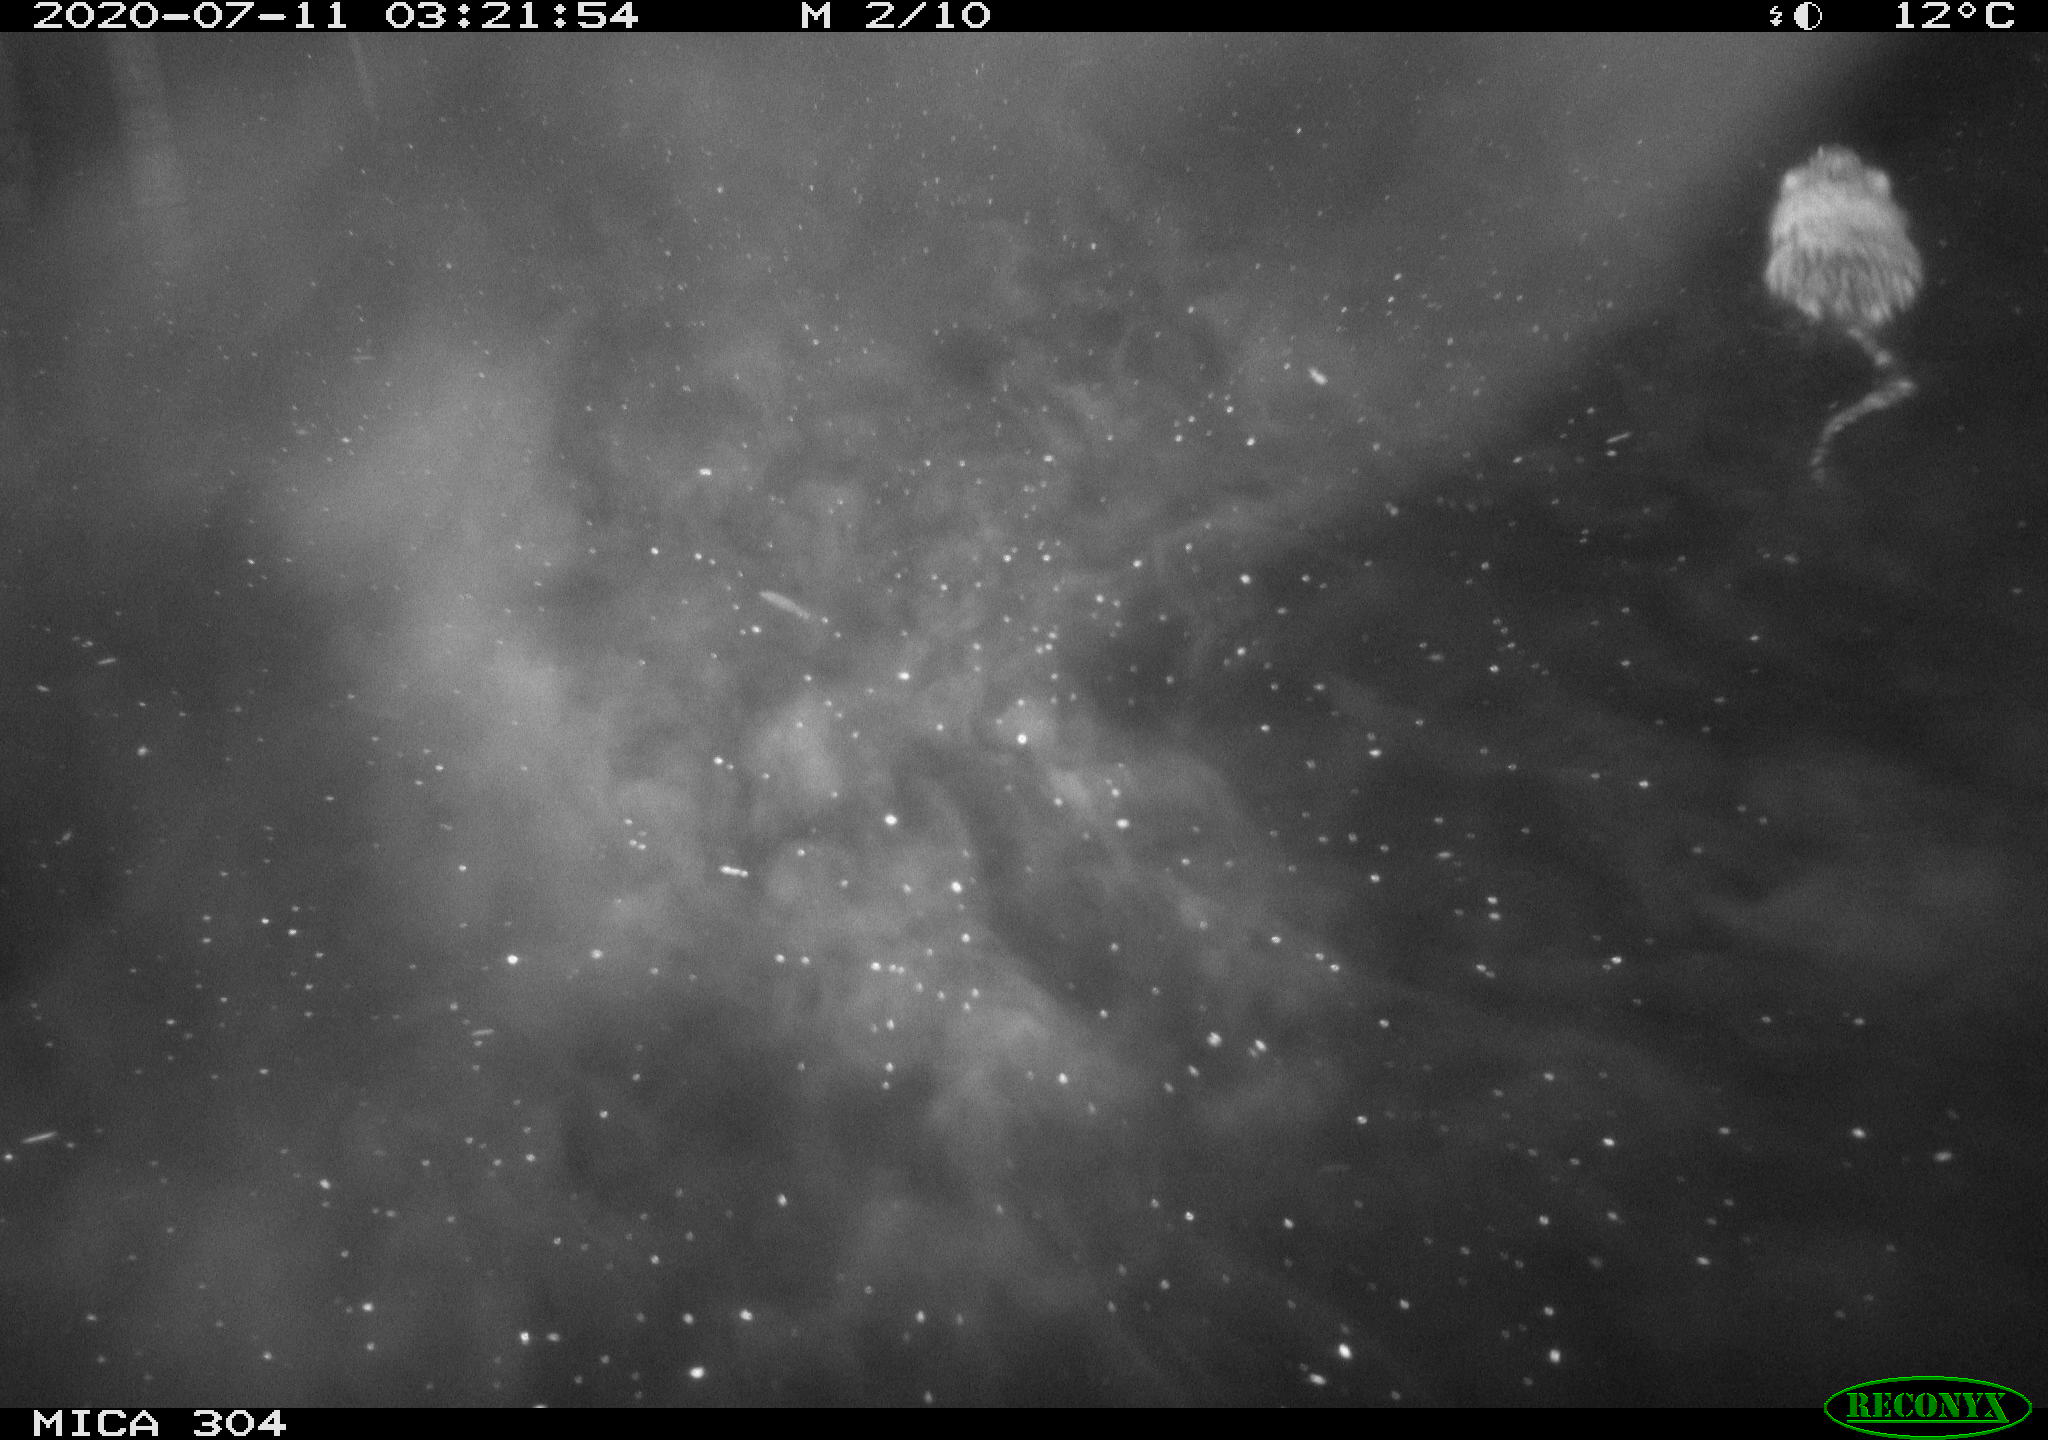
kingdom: Animalia
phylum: Chordata
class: Mammalia
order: Rodentia
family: Cricetidae
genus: Ondatra
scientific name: Ondatra zibethicus
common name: Muskrat
